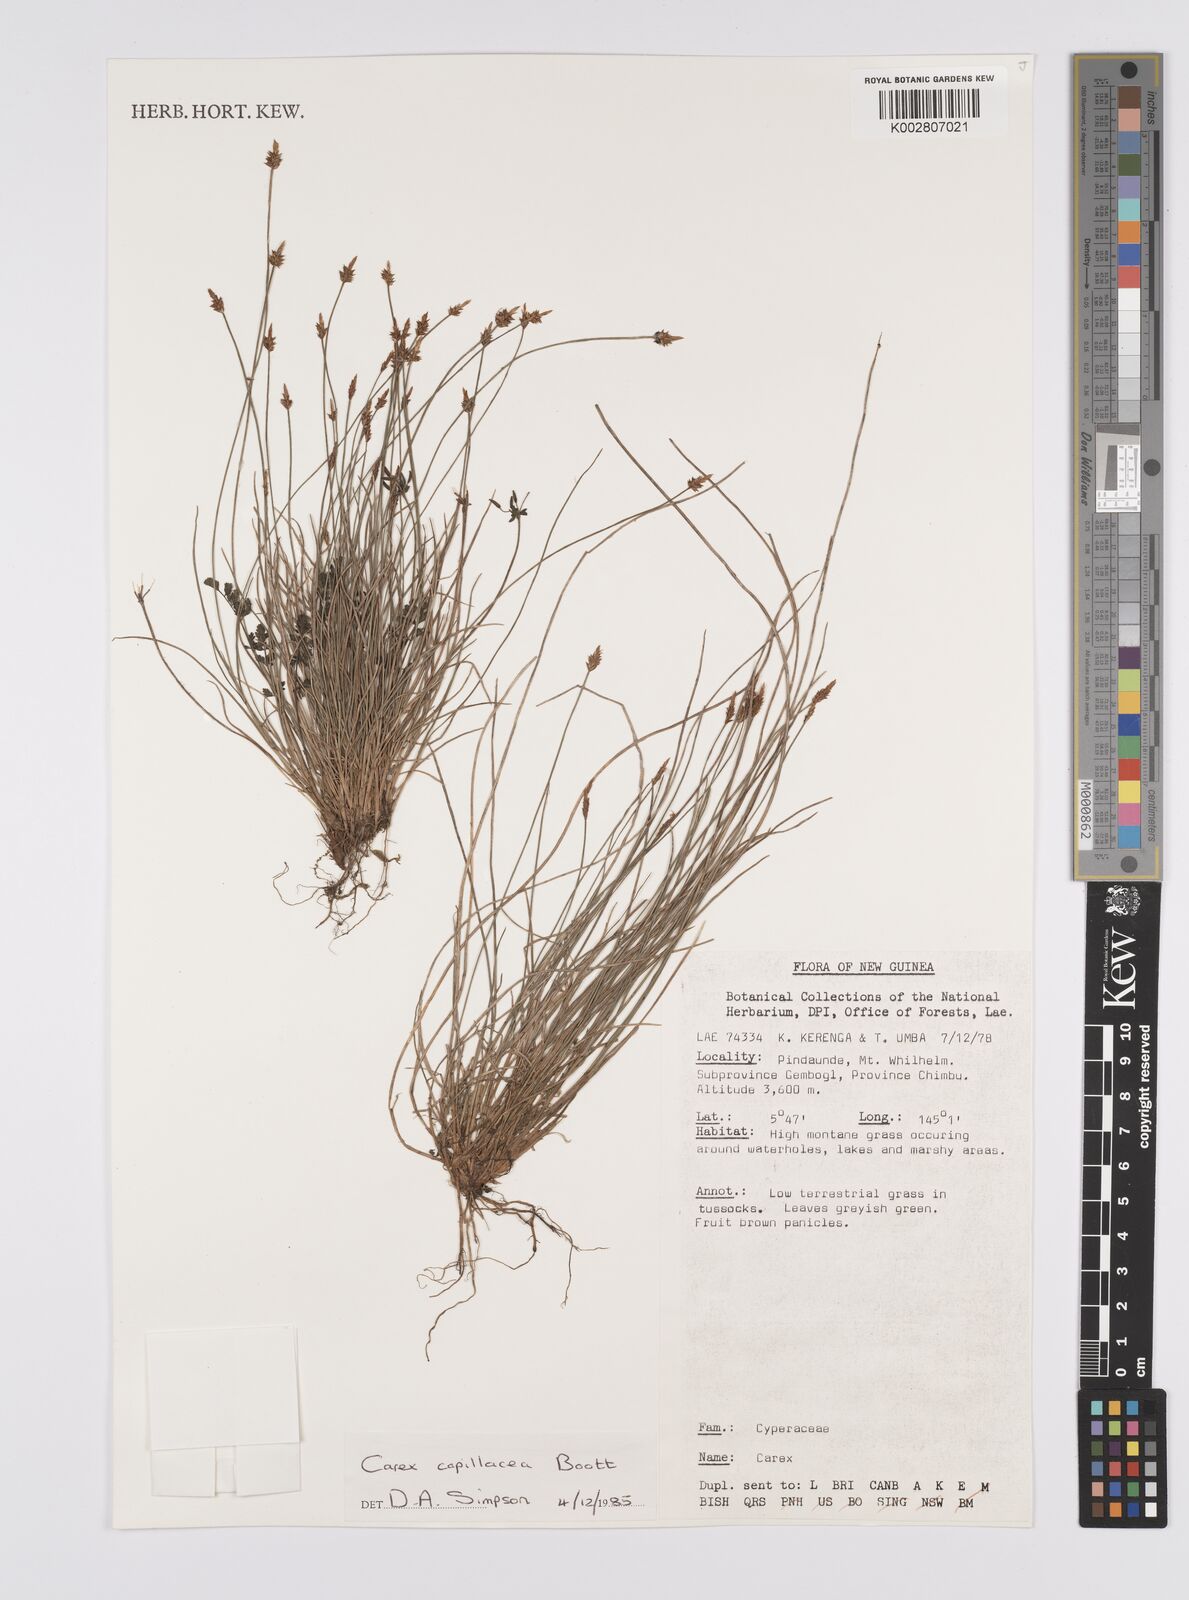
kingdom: Plantae
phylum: Tracheophyta
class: Liliopsida
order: Poales
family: Cyperaceae
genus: Carex
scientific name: Carex capillacea
